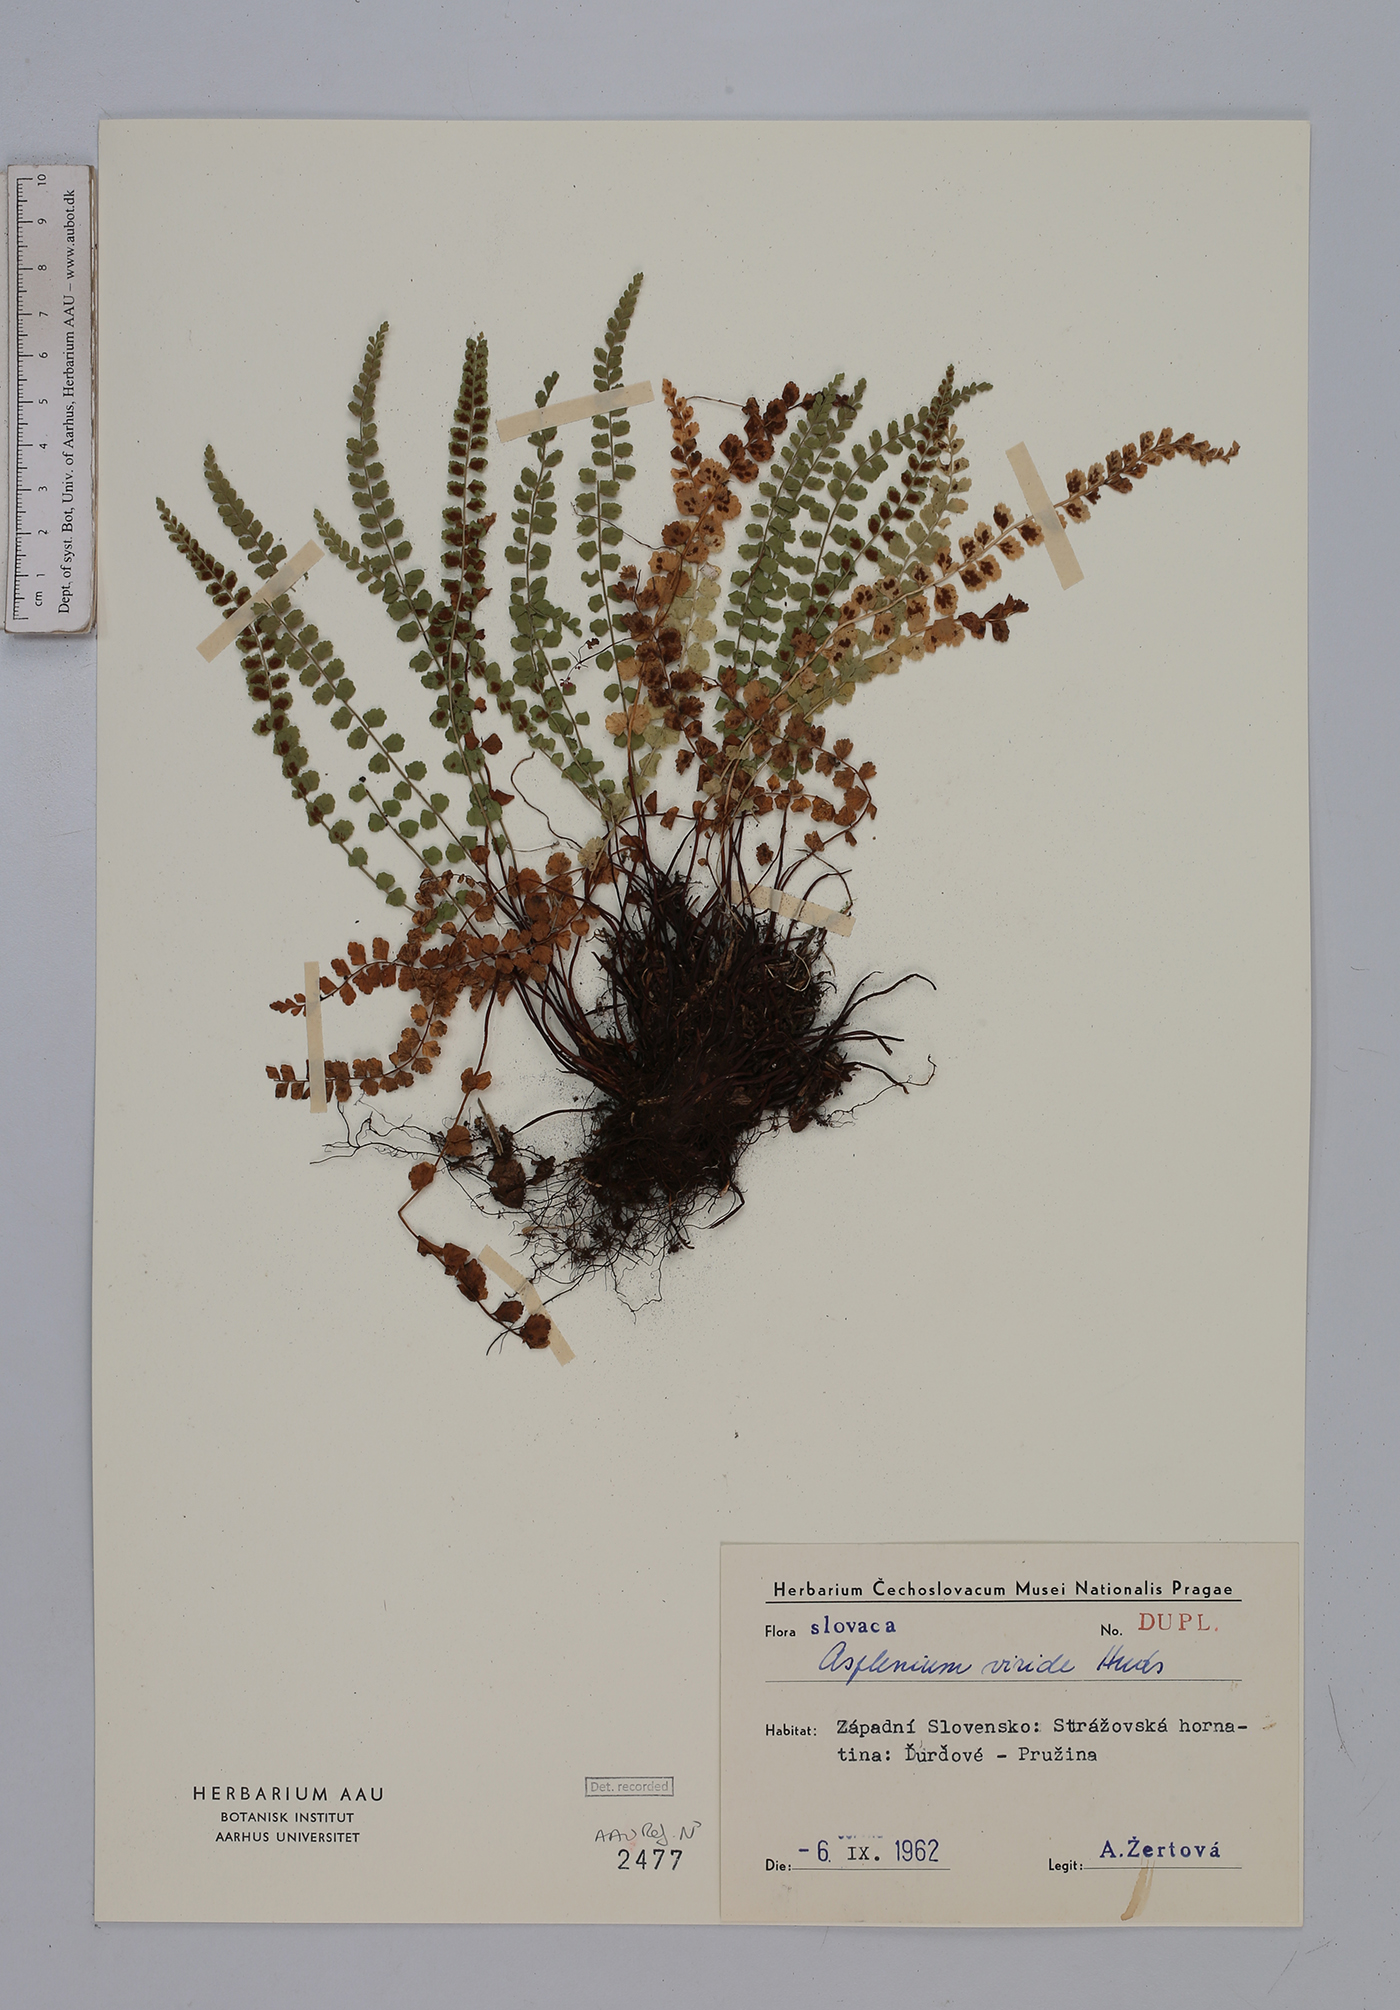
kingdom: Plantae
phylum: Tracheophyta
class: Polypodiopsida
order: Polypodiales
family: Aspleniaceae
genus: Asplenium
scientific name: Asplenium viride
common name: Green spleenwort
